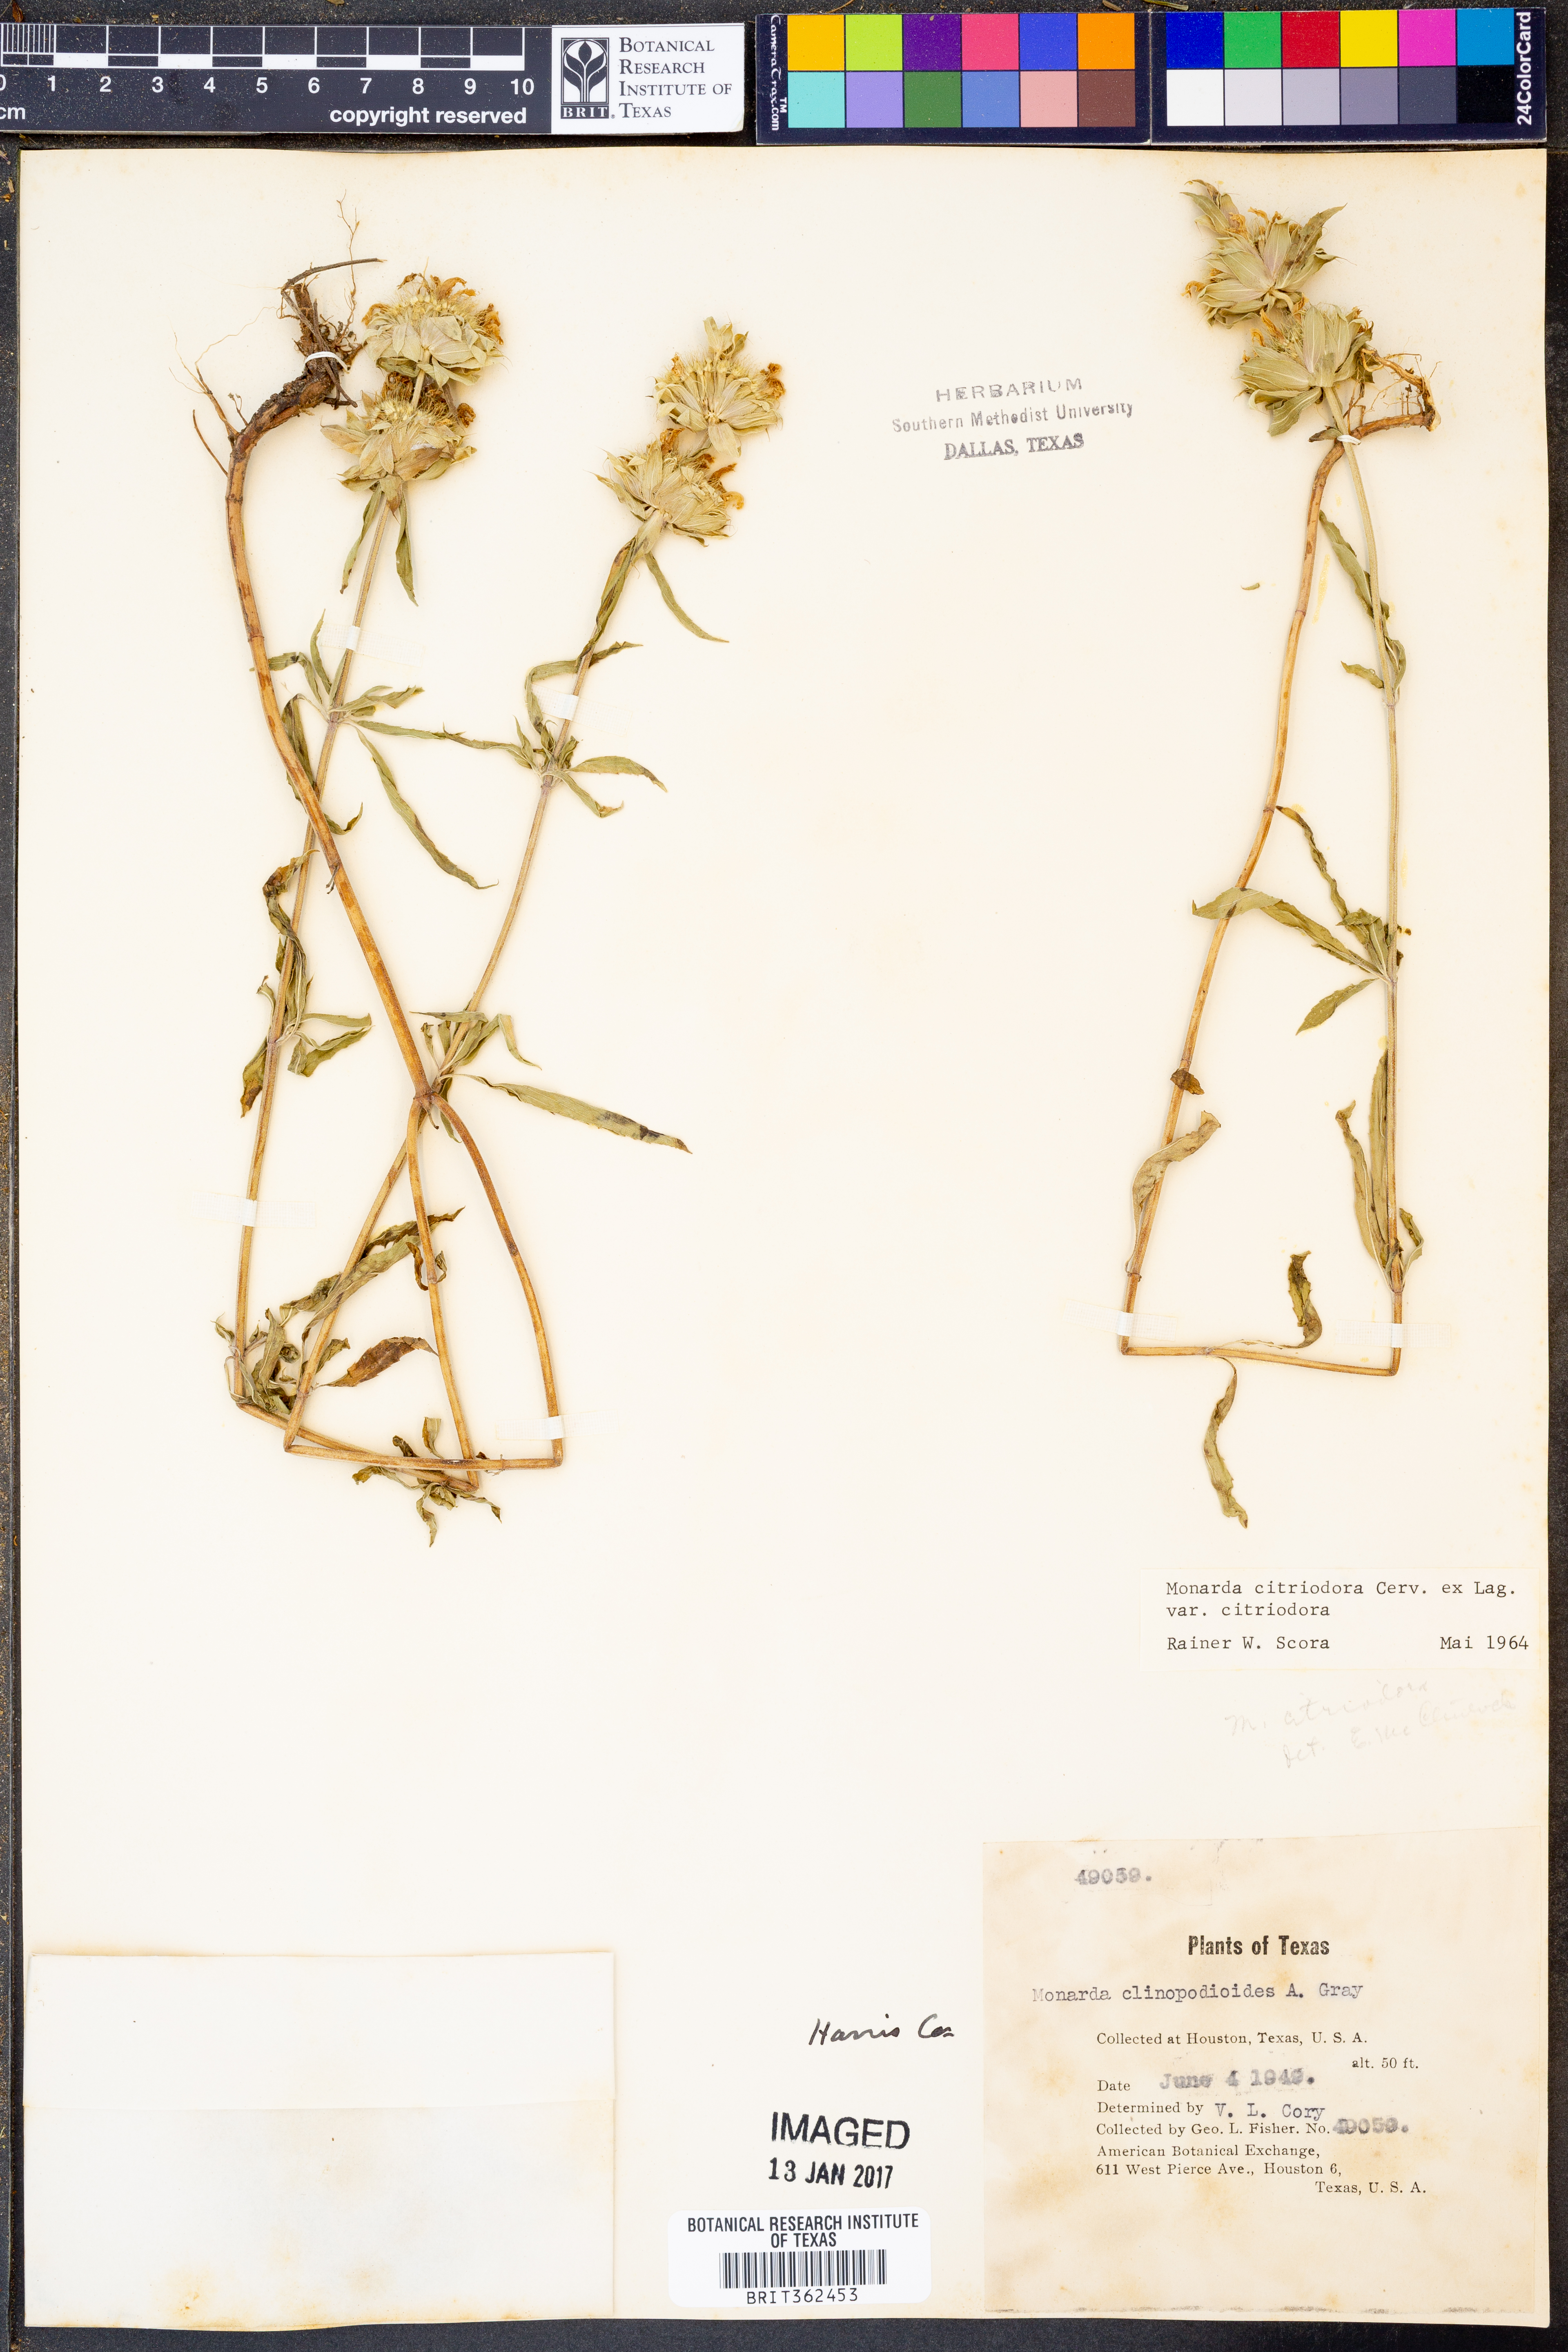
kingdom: Plantae
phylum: Tracheophyta
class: Magnoliopsida
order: Lamiales
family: Lamiaceae
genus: Monarda
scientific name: Monarda citriodora
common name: Lemon beebalm
